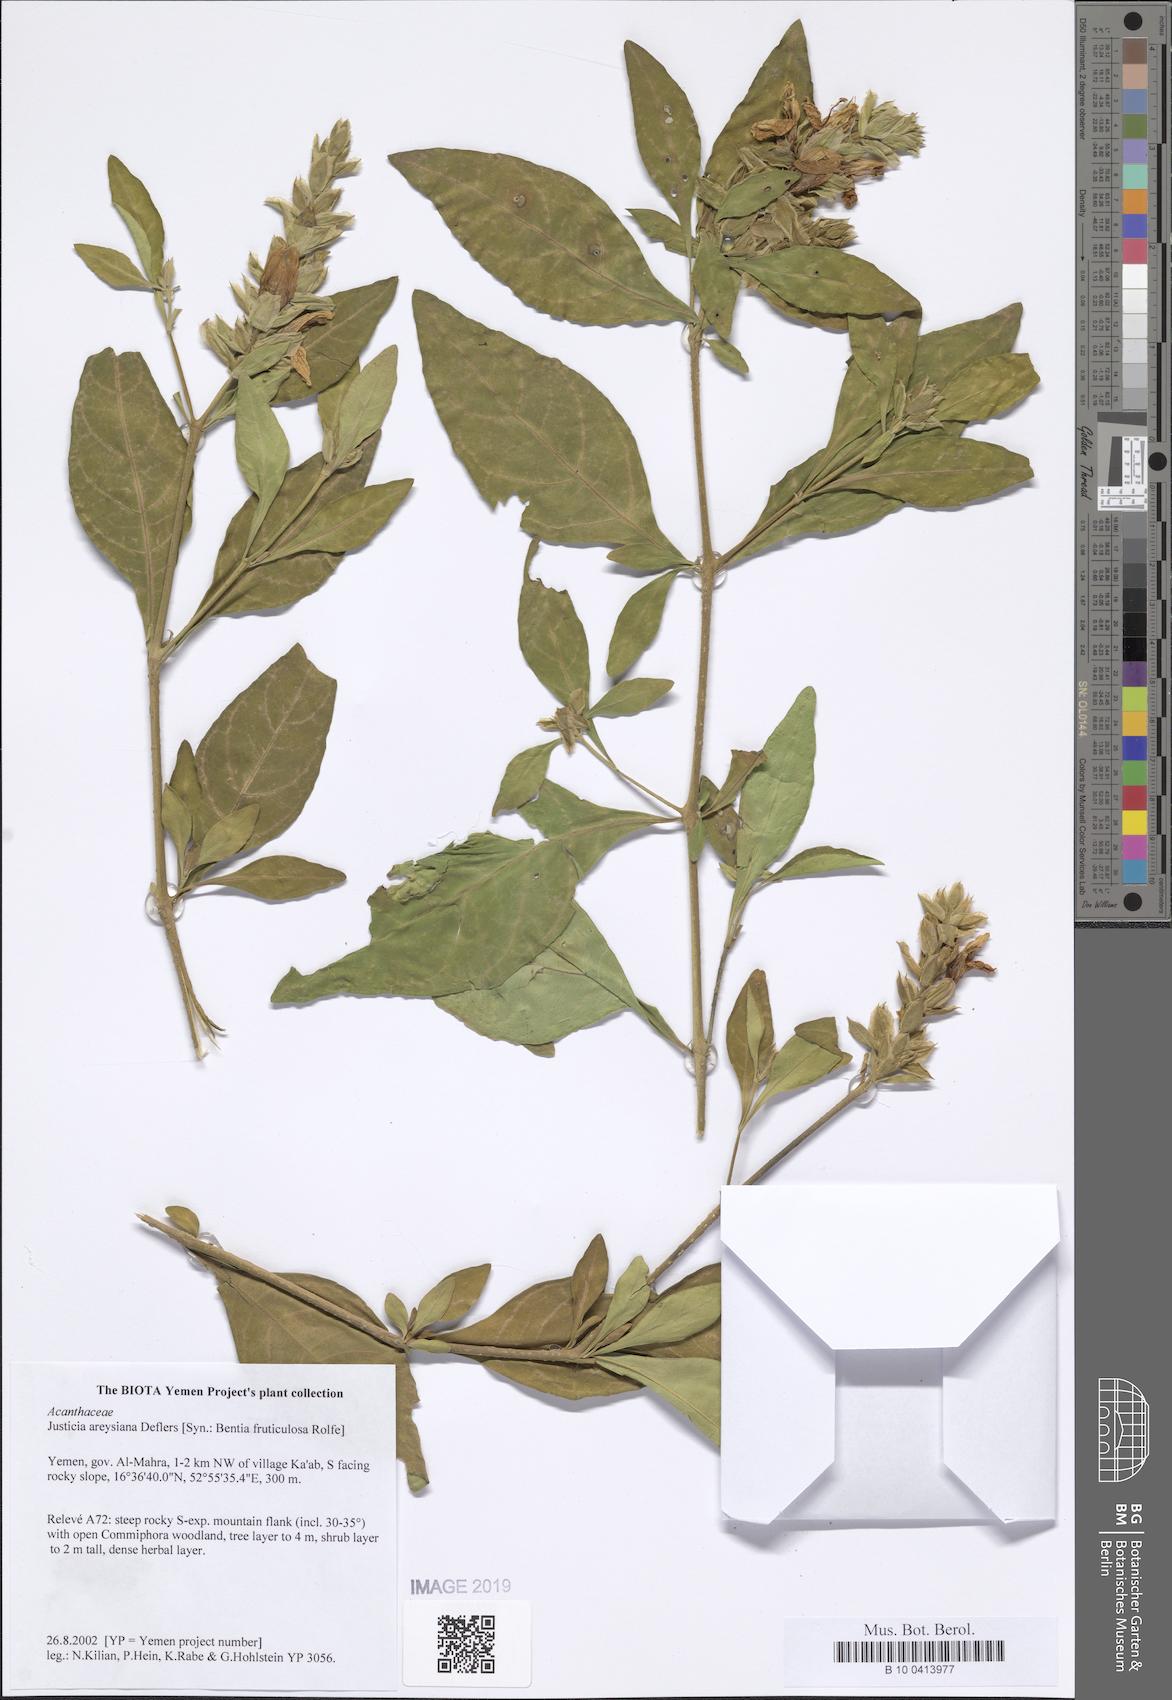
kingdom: Plantae
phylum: Tracheophyta
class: Magnoliopsida
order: Lamiales
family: Acanthaceae
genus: Justicia
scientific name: Justicia areysiana
